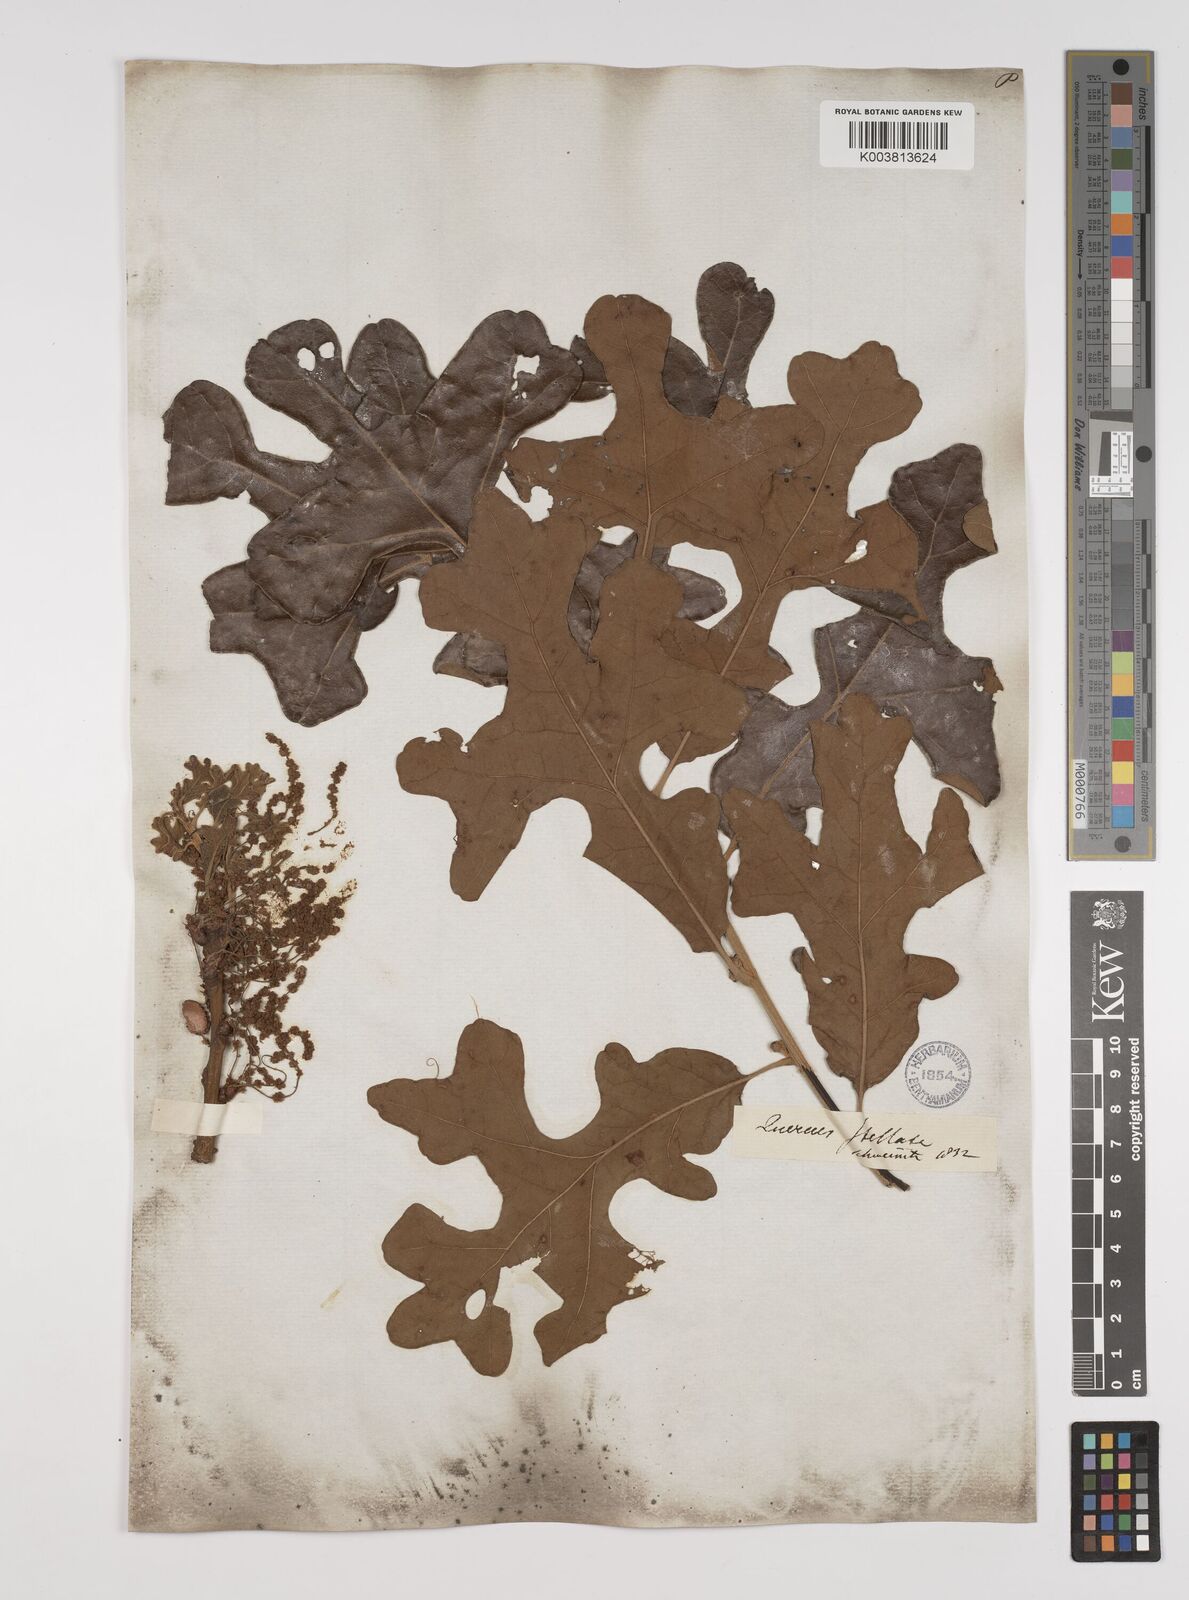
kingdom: Plantae
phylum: Tracheophyta
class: Magnoliopsida
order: Fagales
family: Fagaceae
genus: Quercus
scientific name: Quercus stellata
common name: Post oak
